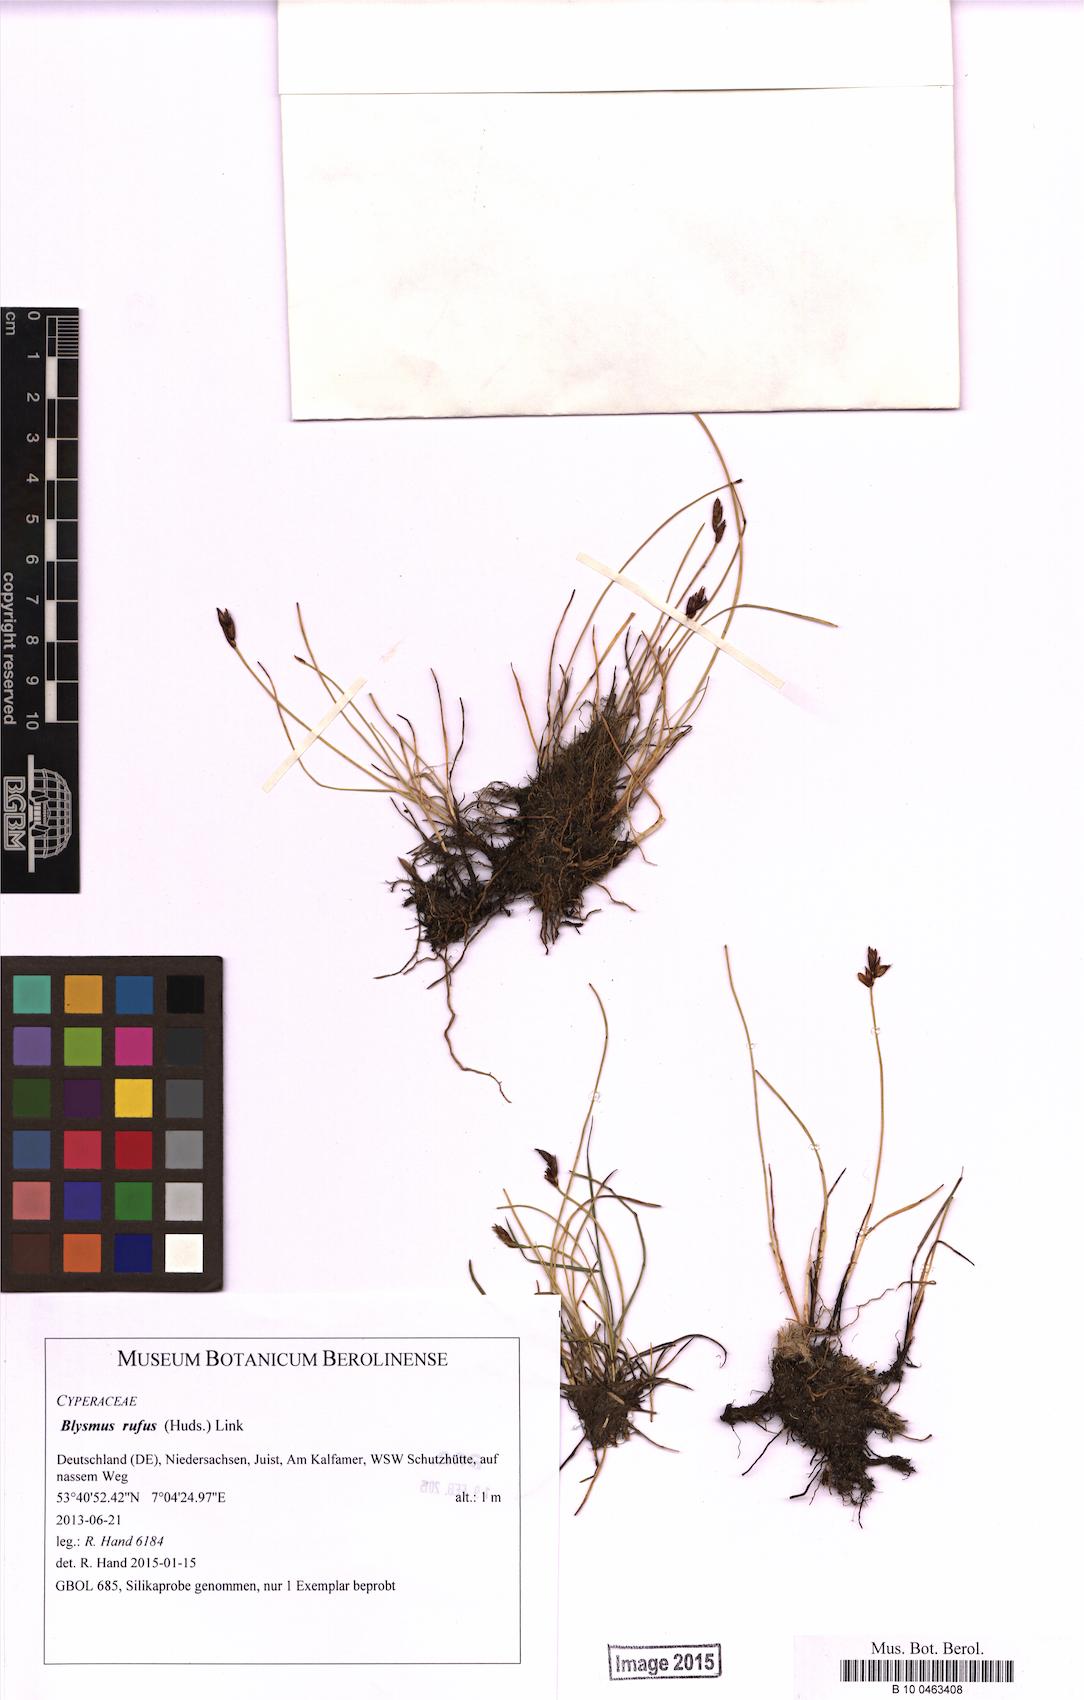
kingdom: Plantae
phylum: Tracheophyta
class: Liliopsida
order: Poales
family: Cyperaceae
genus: Blysmus
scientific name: Blysmus rufus
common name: Saltmarsh flat-sedge
